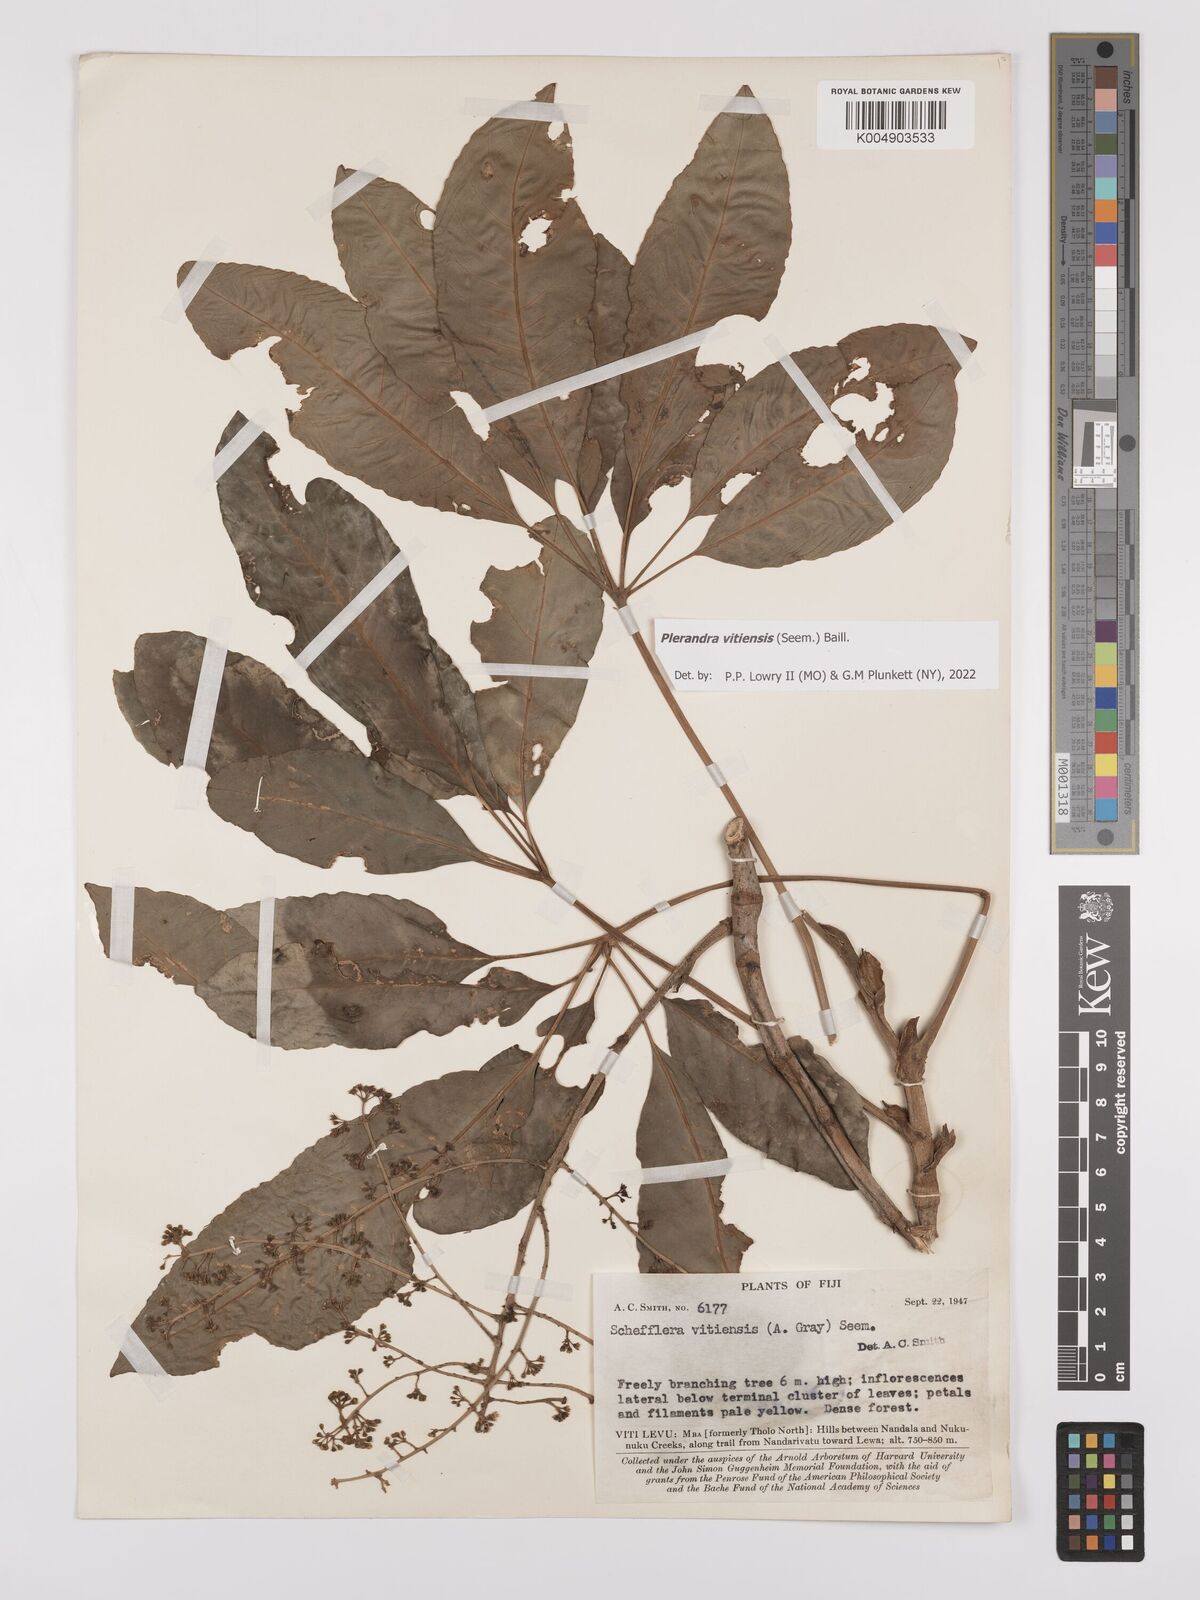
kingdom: Plantae
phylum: Tracheophyta
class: Magnoliopsida
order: Apiales
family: Araliaceae
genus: Schefflera
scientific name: Schefflera vitiensis
